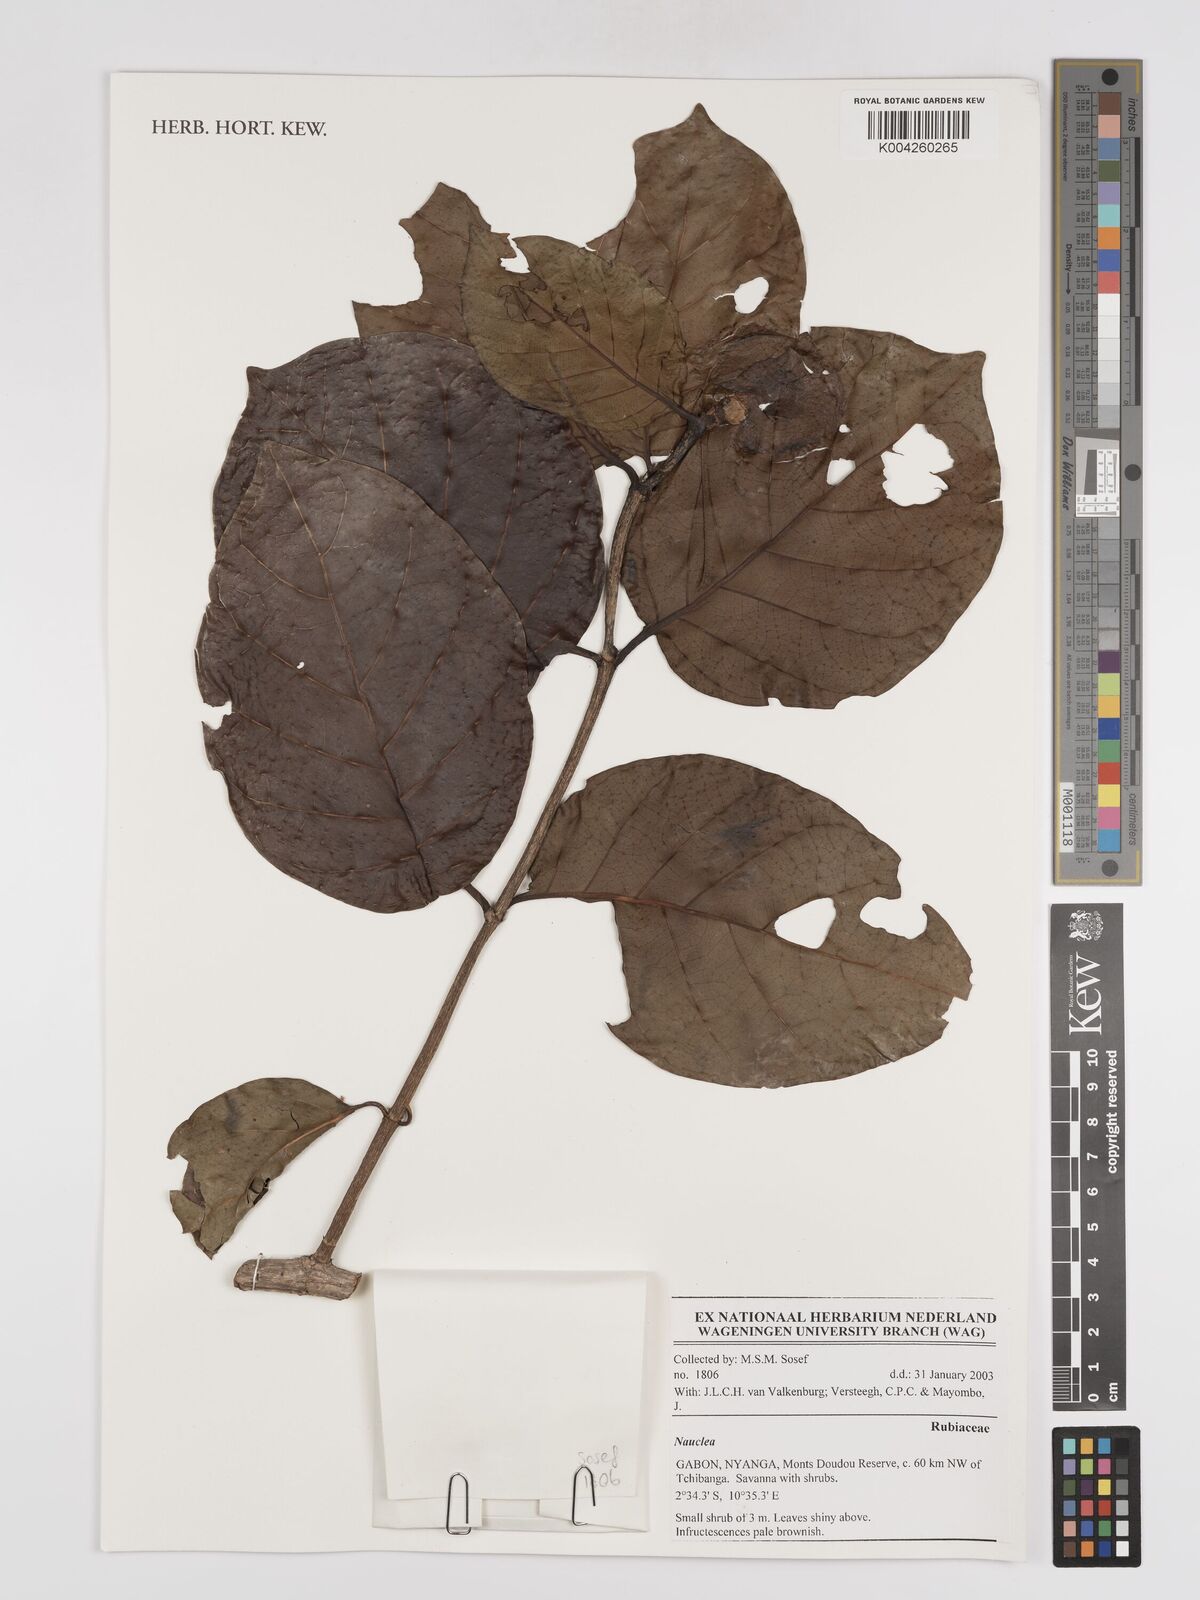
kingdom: Plantae
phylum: Tracheophyta
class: Magnoliopsida
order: Gentianales
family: Rubiaceae
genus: Nauclea
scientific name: Nauclea
